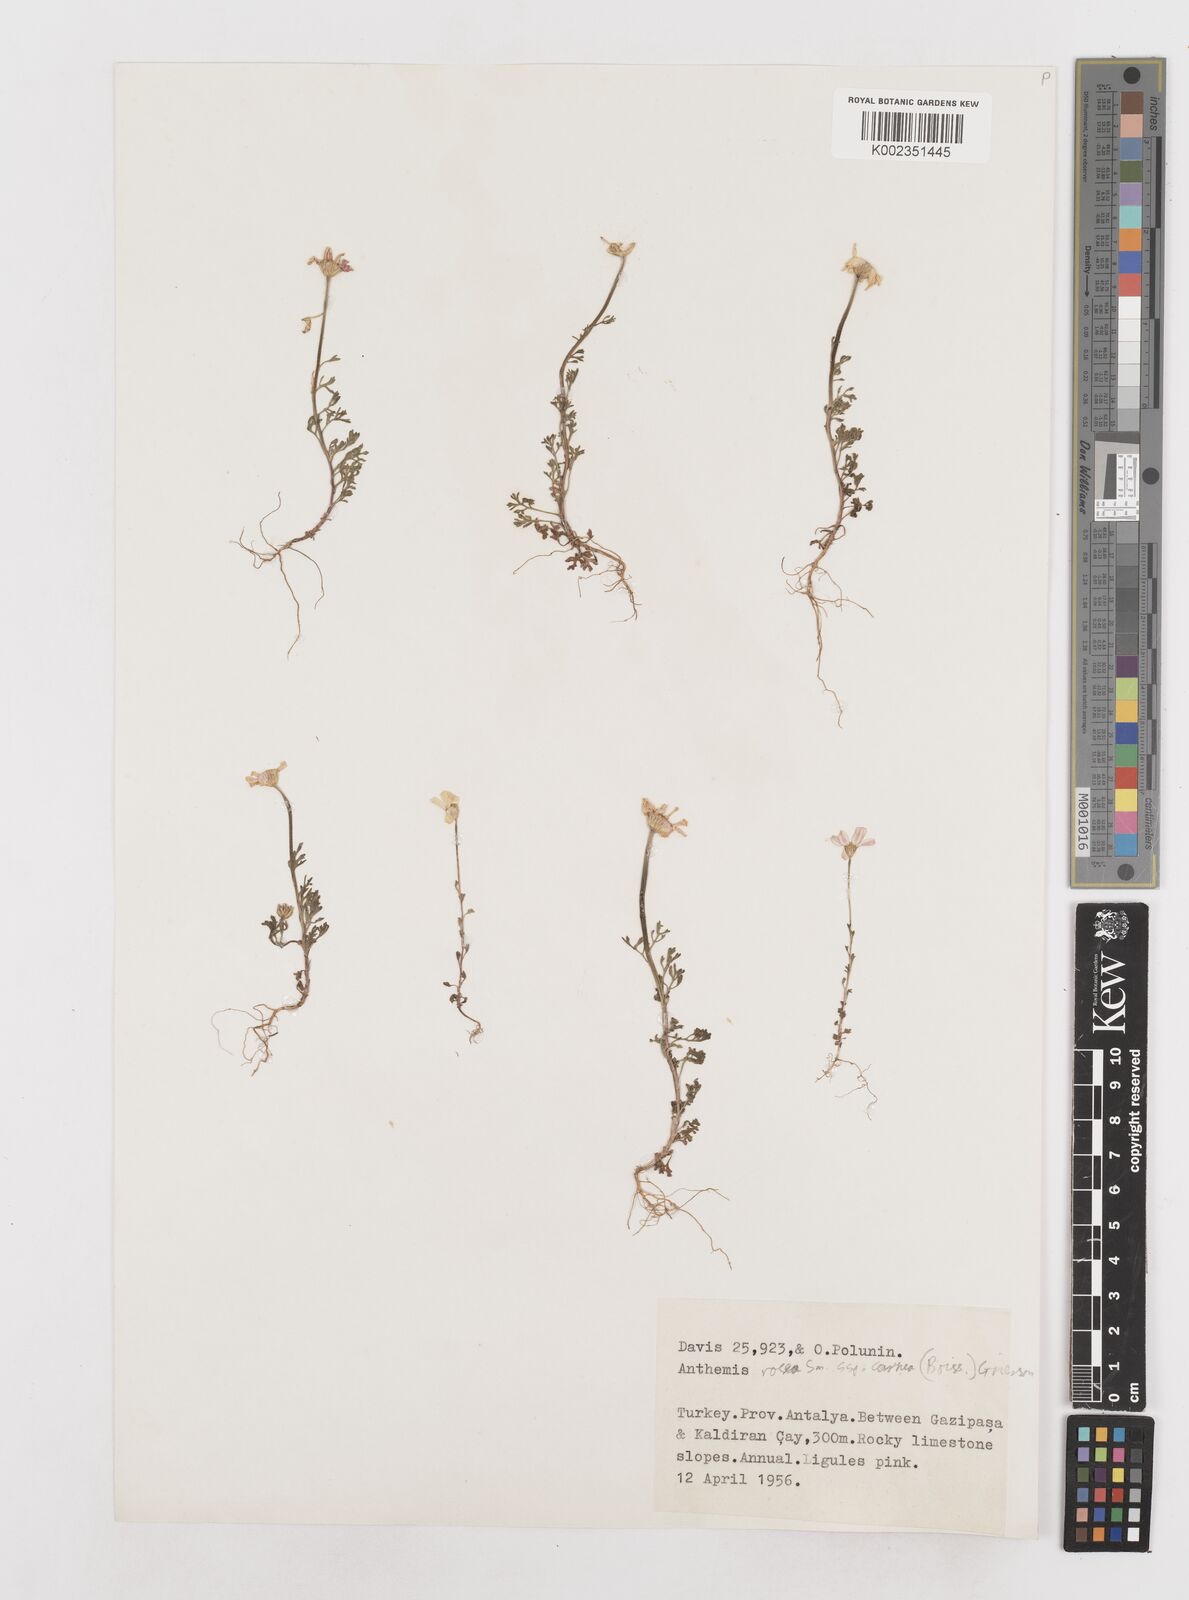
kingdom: Plantae
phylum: Tracheophyta
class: Magnoliopsida
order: Asterales
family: Asteraceae
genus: Anthemis
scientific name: Anthemis rosea
